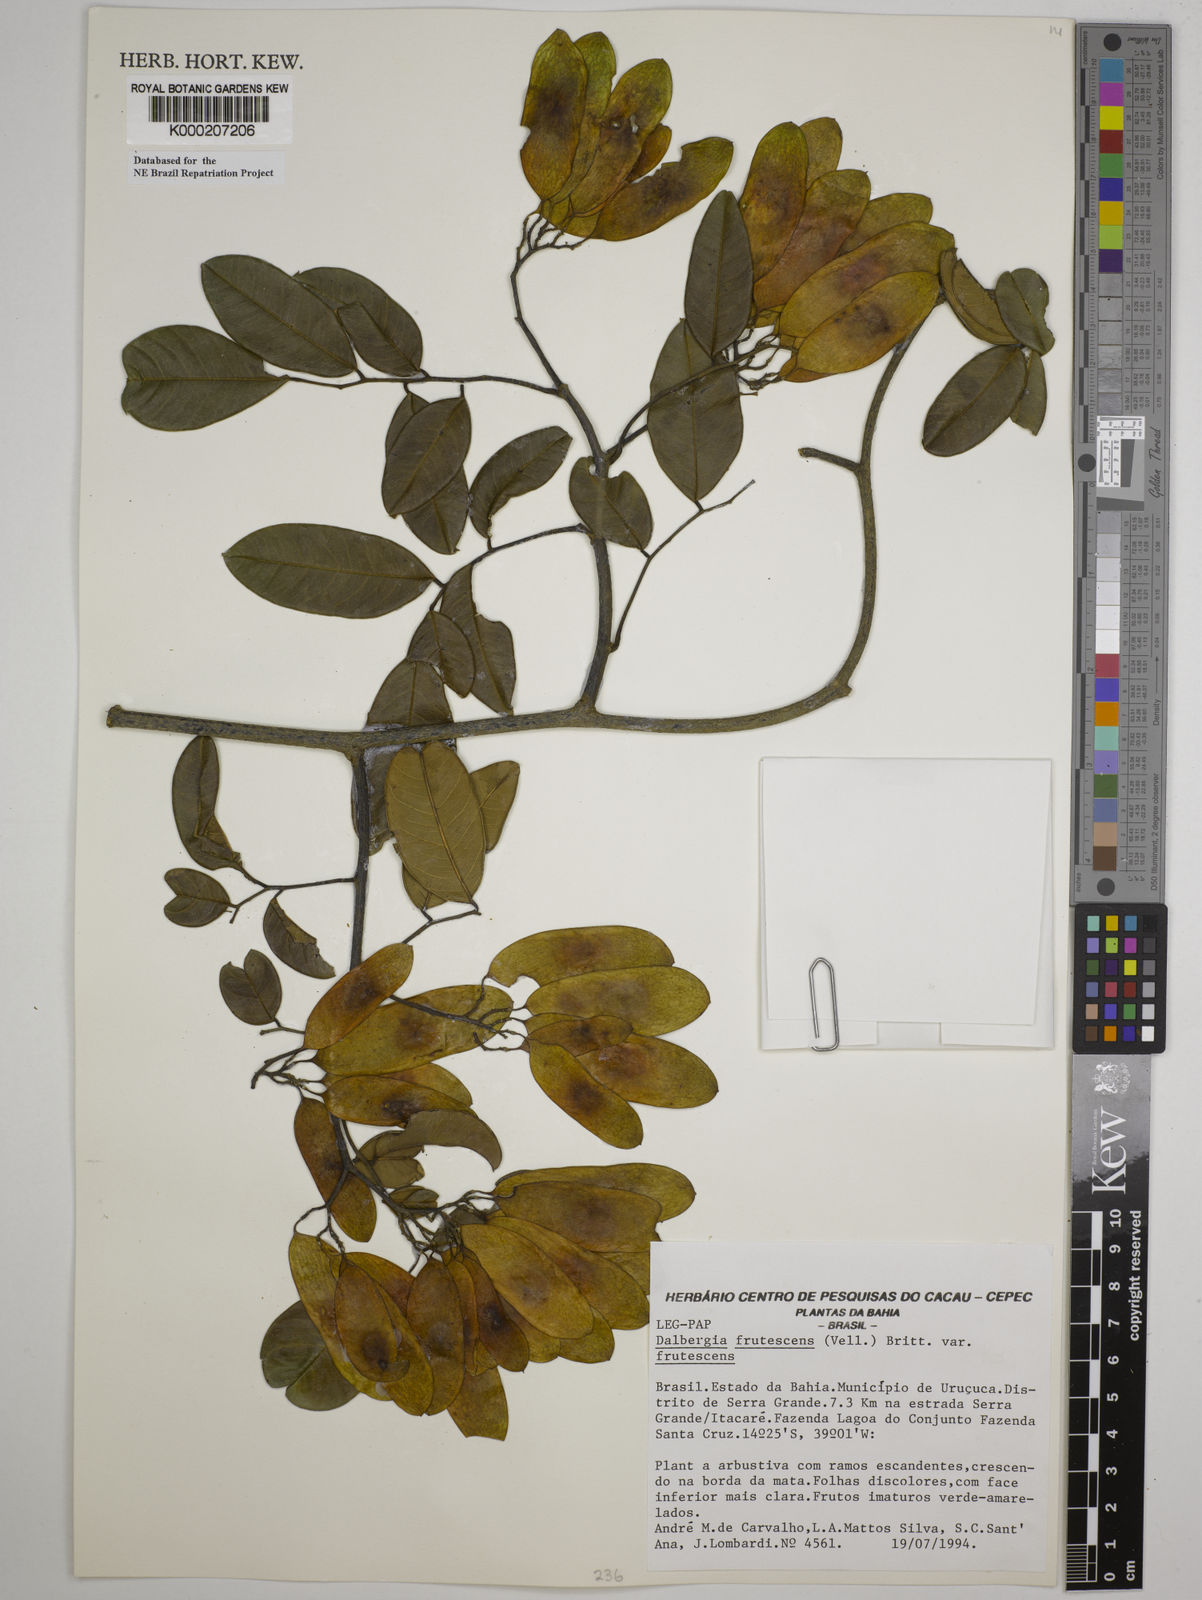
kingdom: Plantae
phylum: Tracheophyta
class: Magnoliopsida
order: Fabales
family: Fabaceae
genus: Dalbergia
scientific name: Dalbergia frutescens
